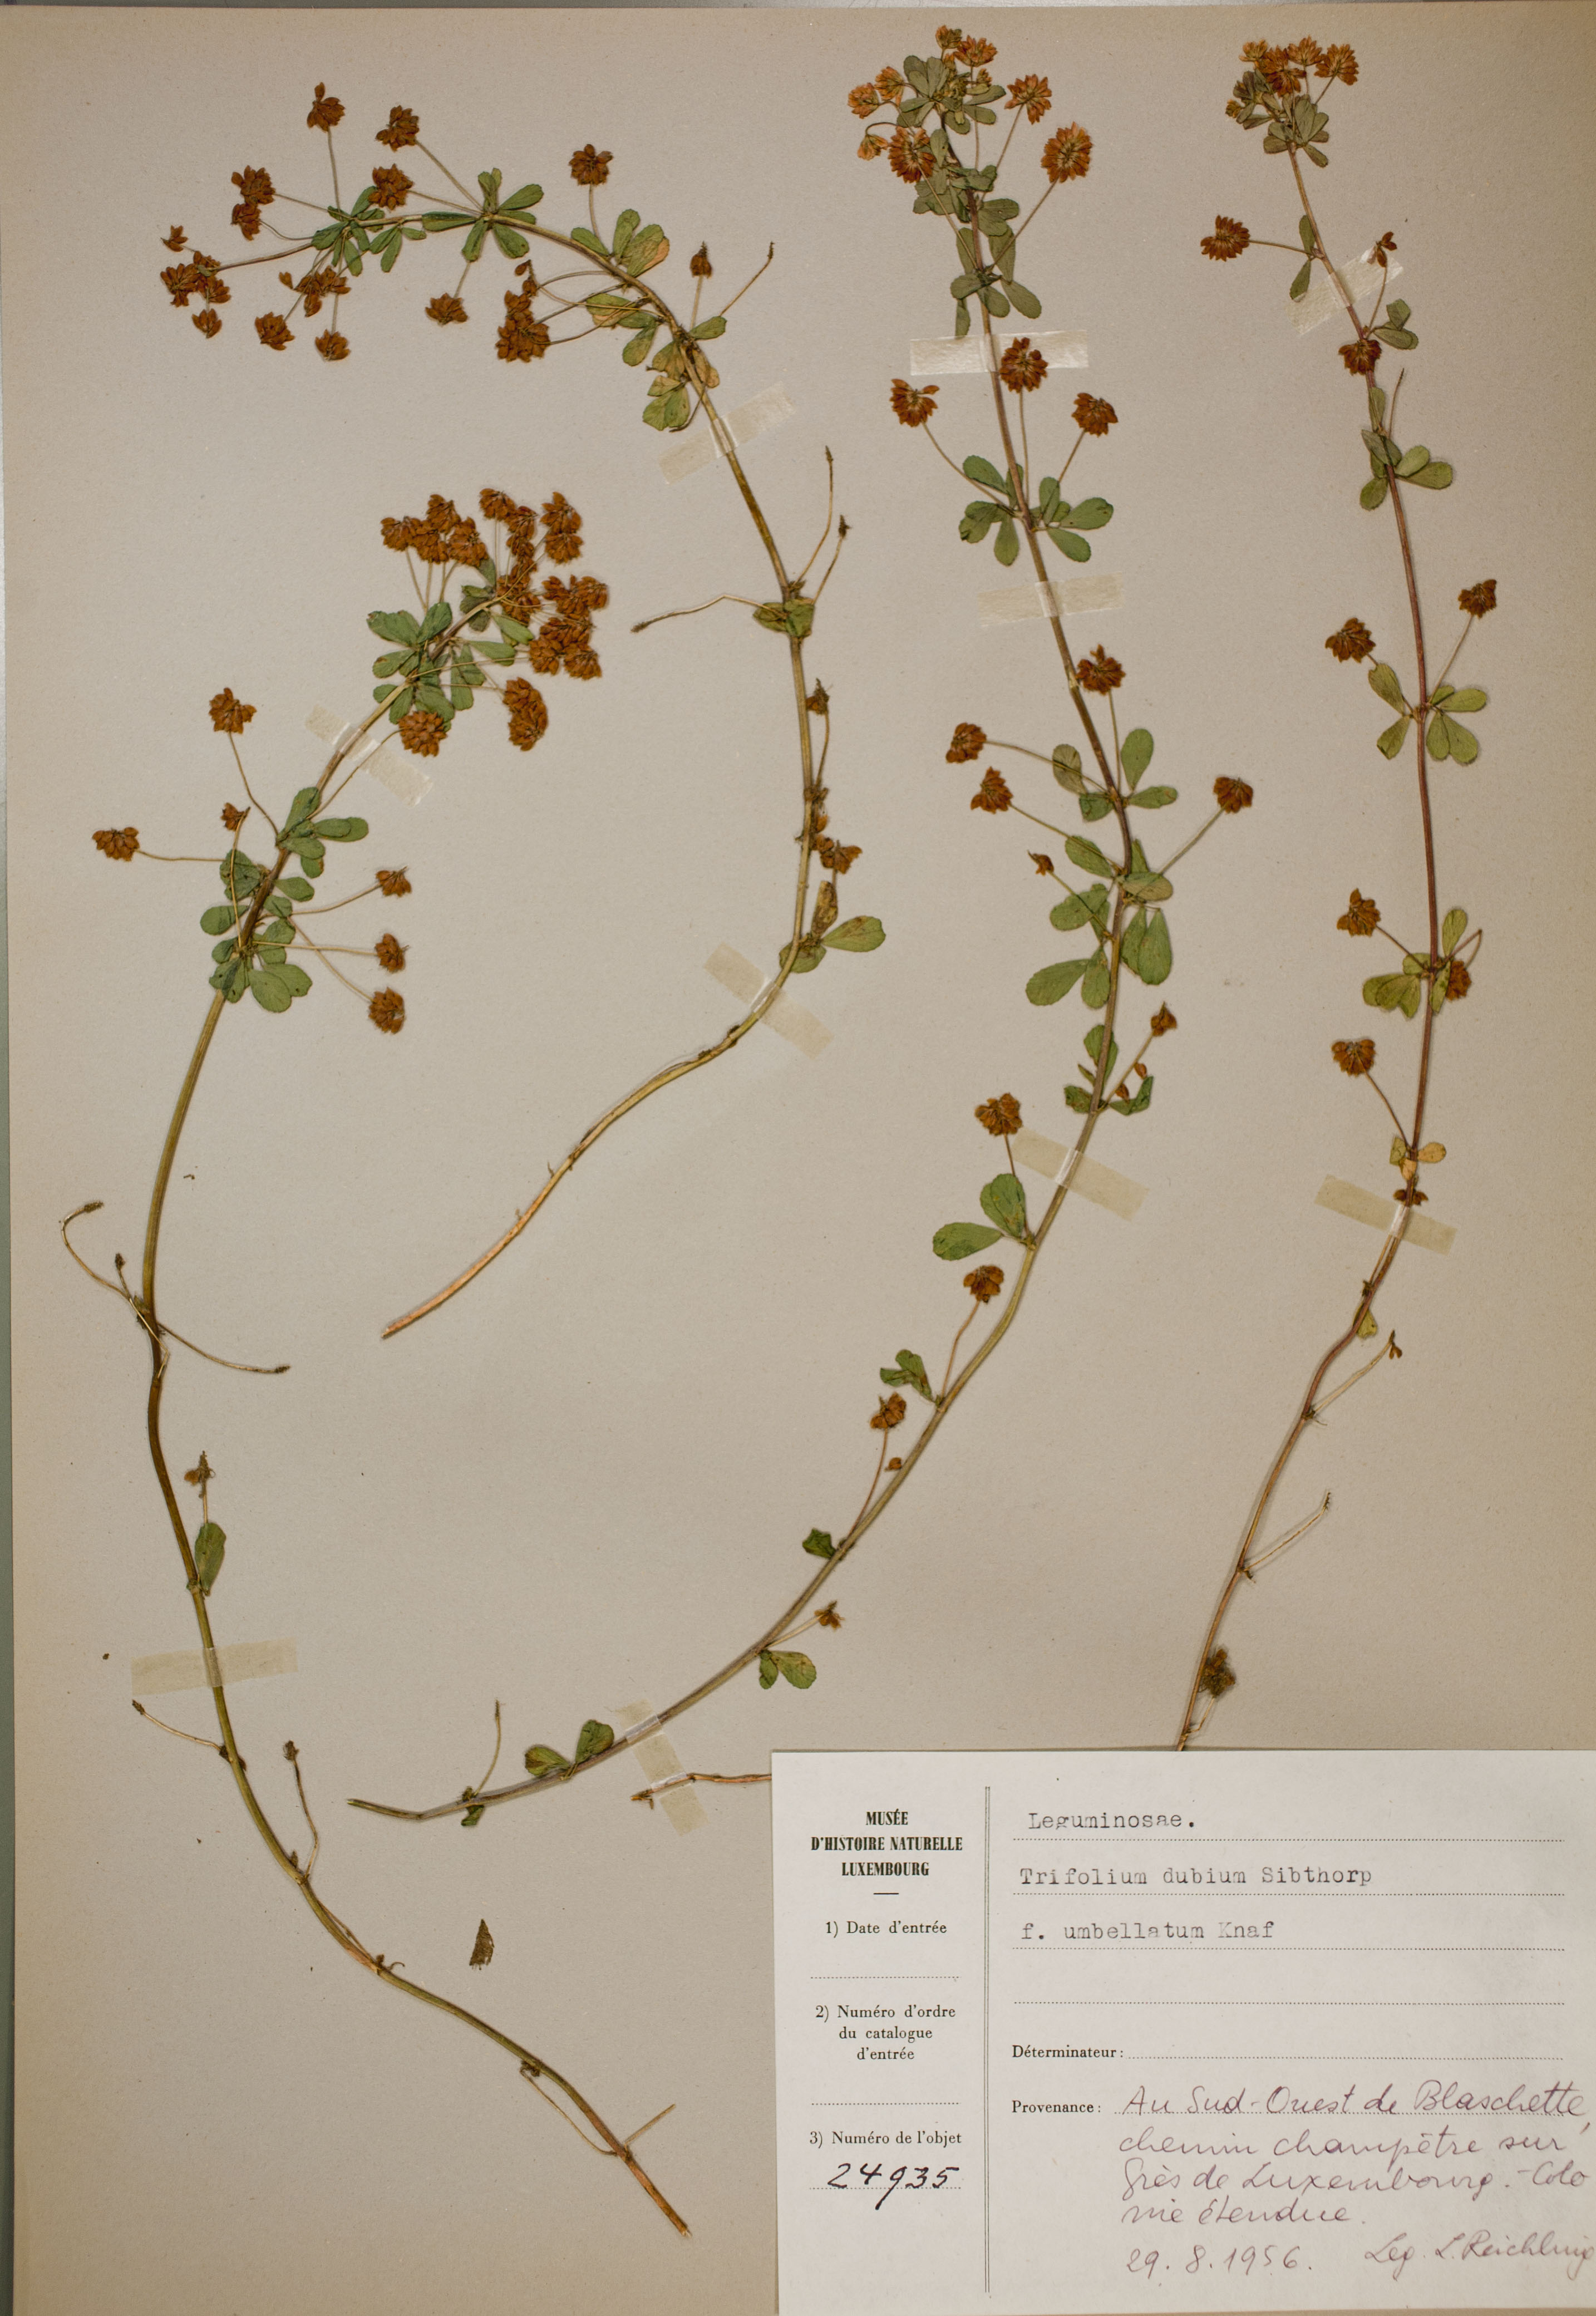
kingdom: Plantae
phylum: Tracheophyta
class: Magnoliopsida
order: Fabales
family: Fabaceae
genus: Trifolium
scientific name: Trifolium dubium
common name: Suckling clover
